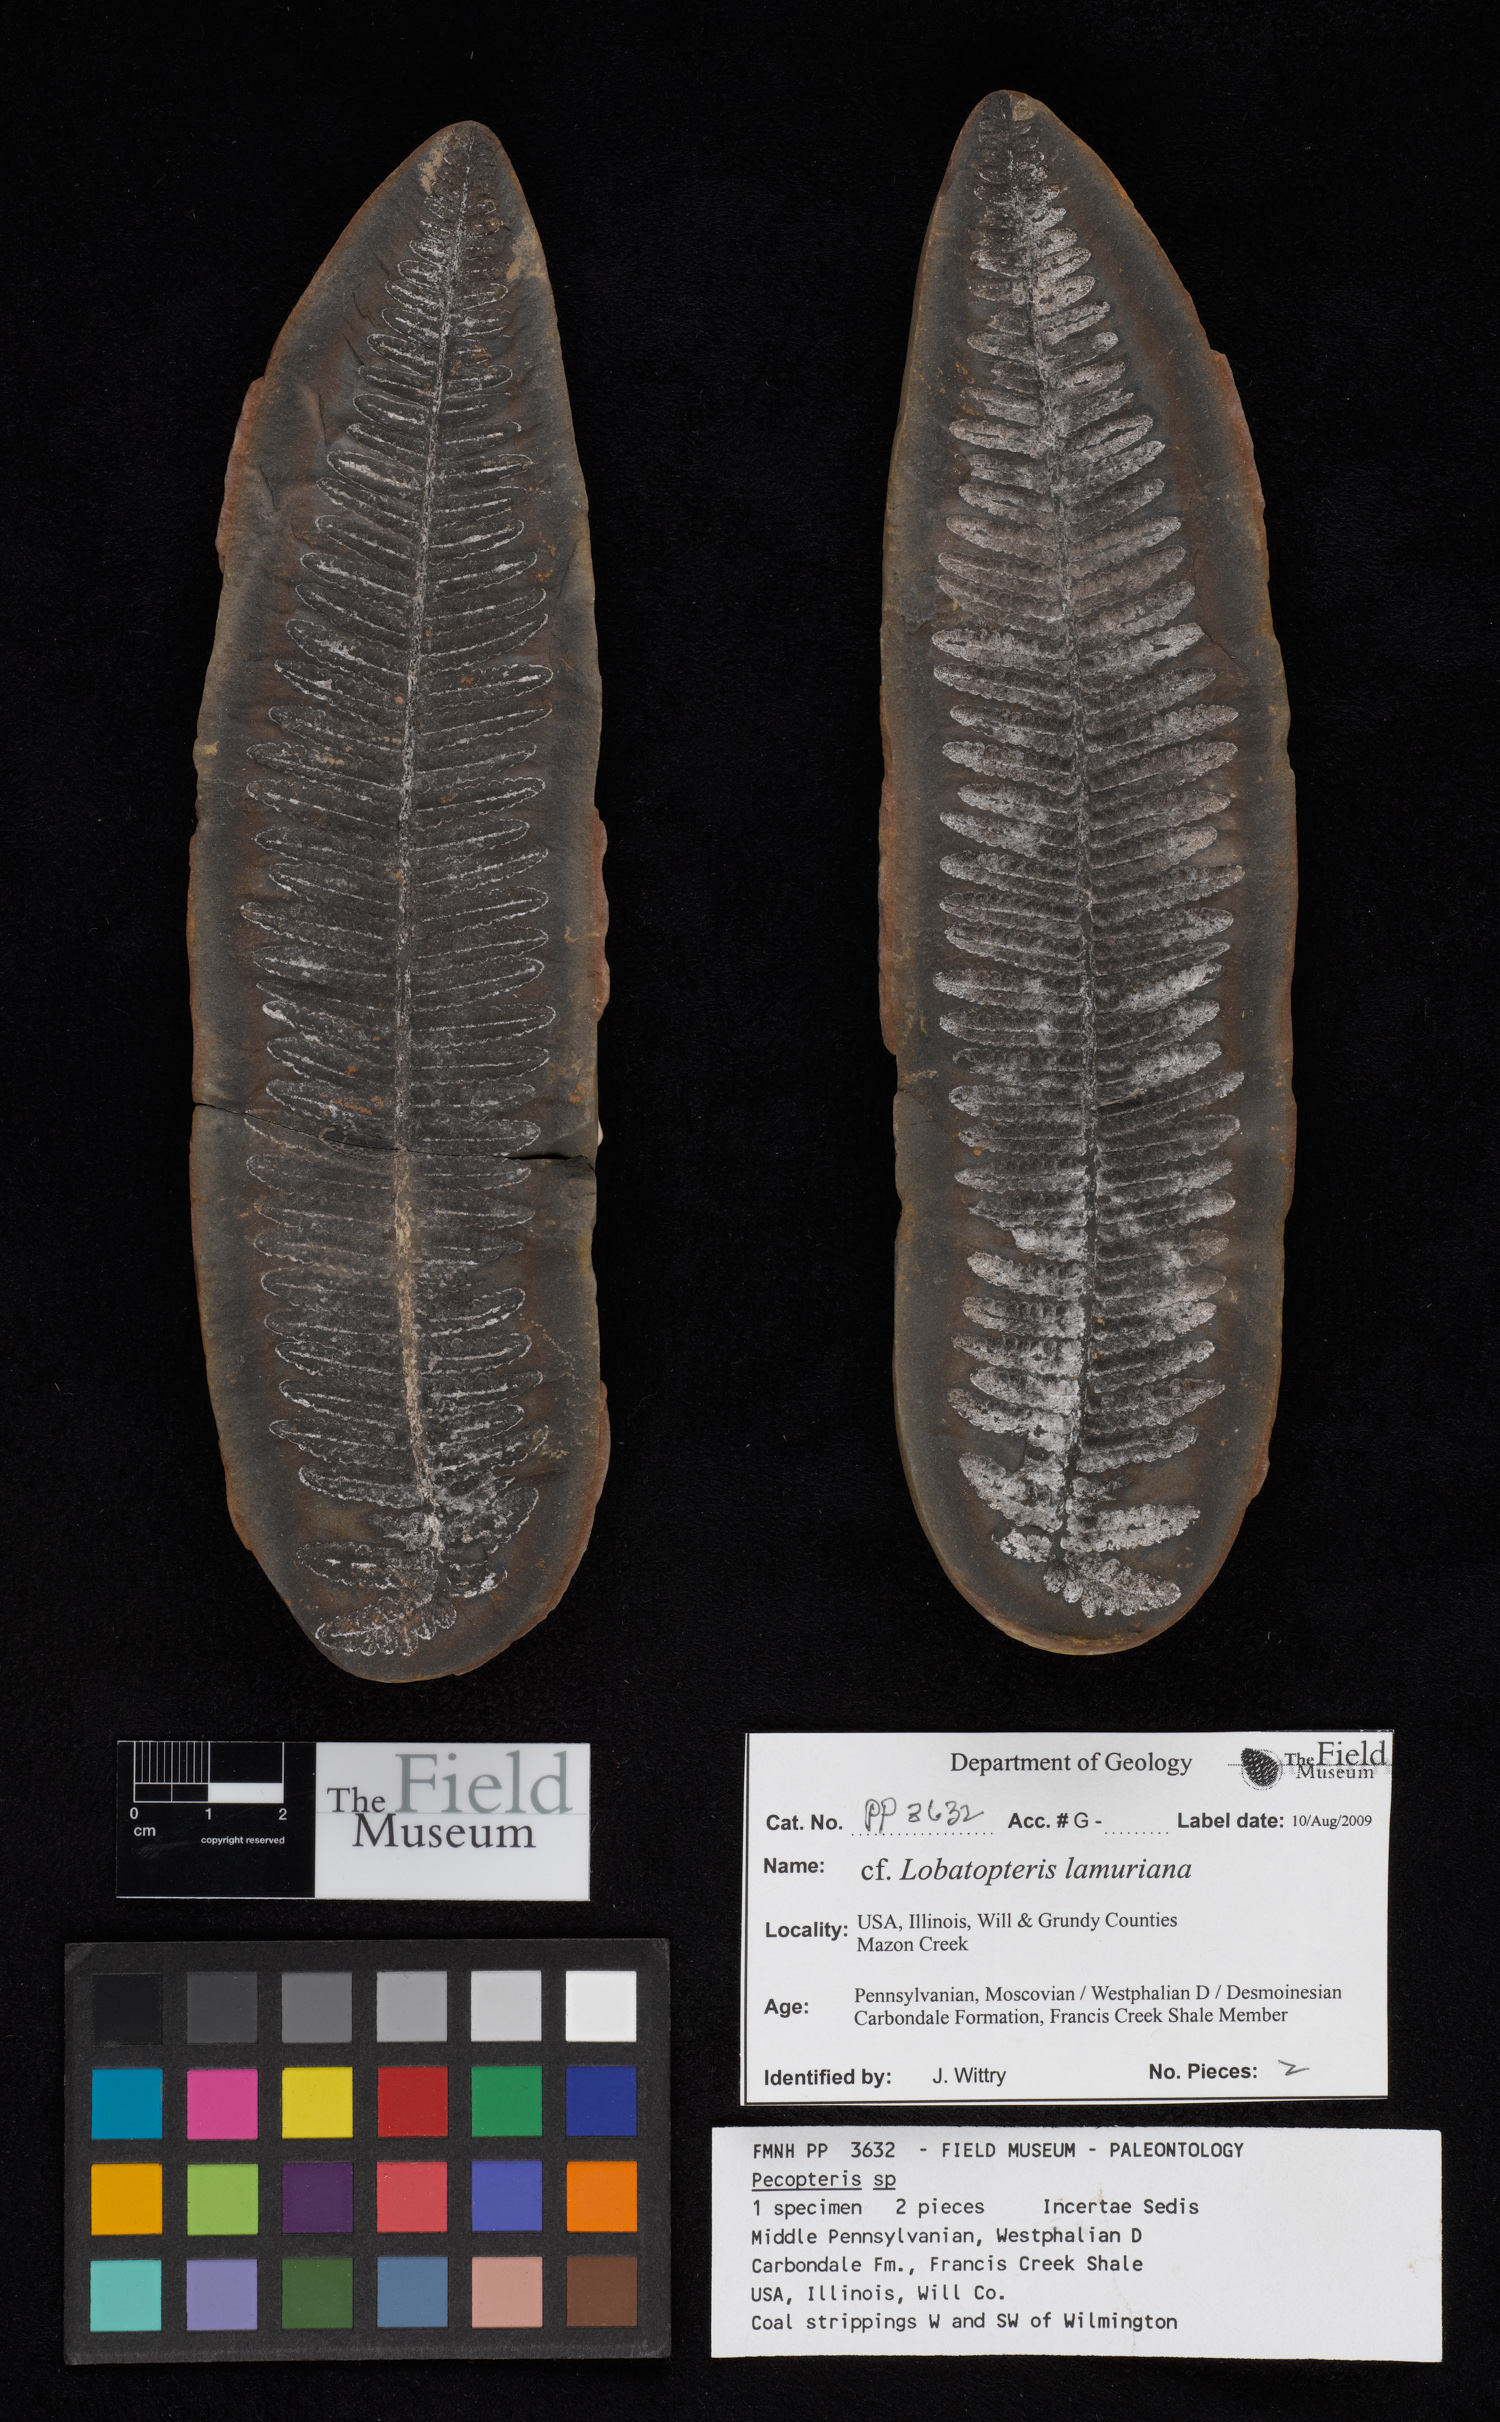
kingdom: Plantae
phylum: Tracheophyta
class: Polypodiopsida
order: Marattiales
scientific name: Marattiales
